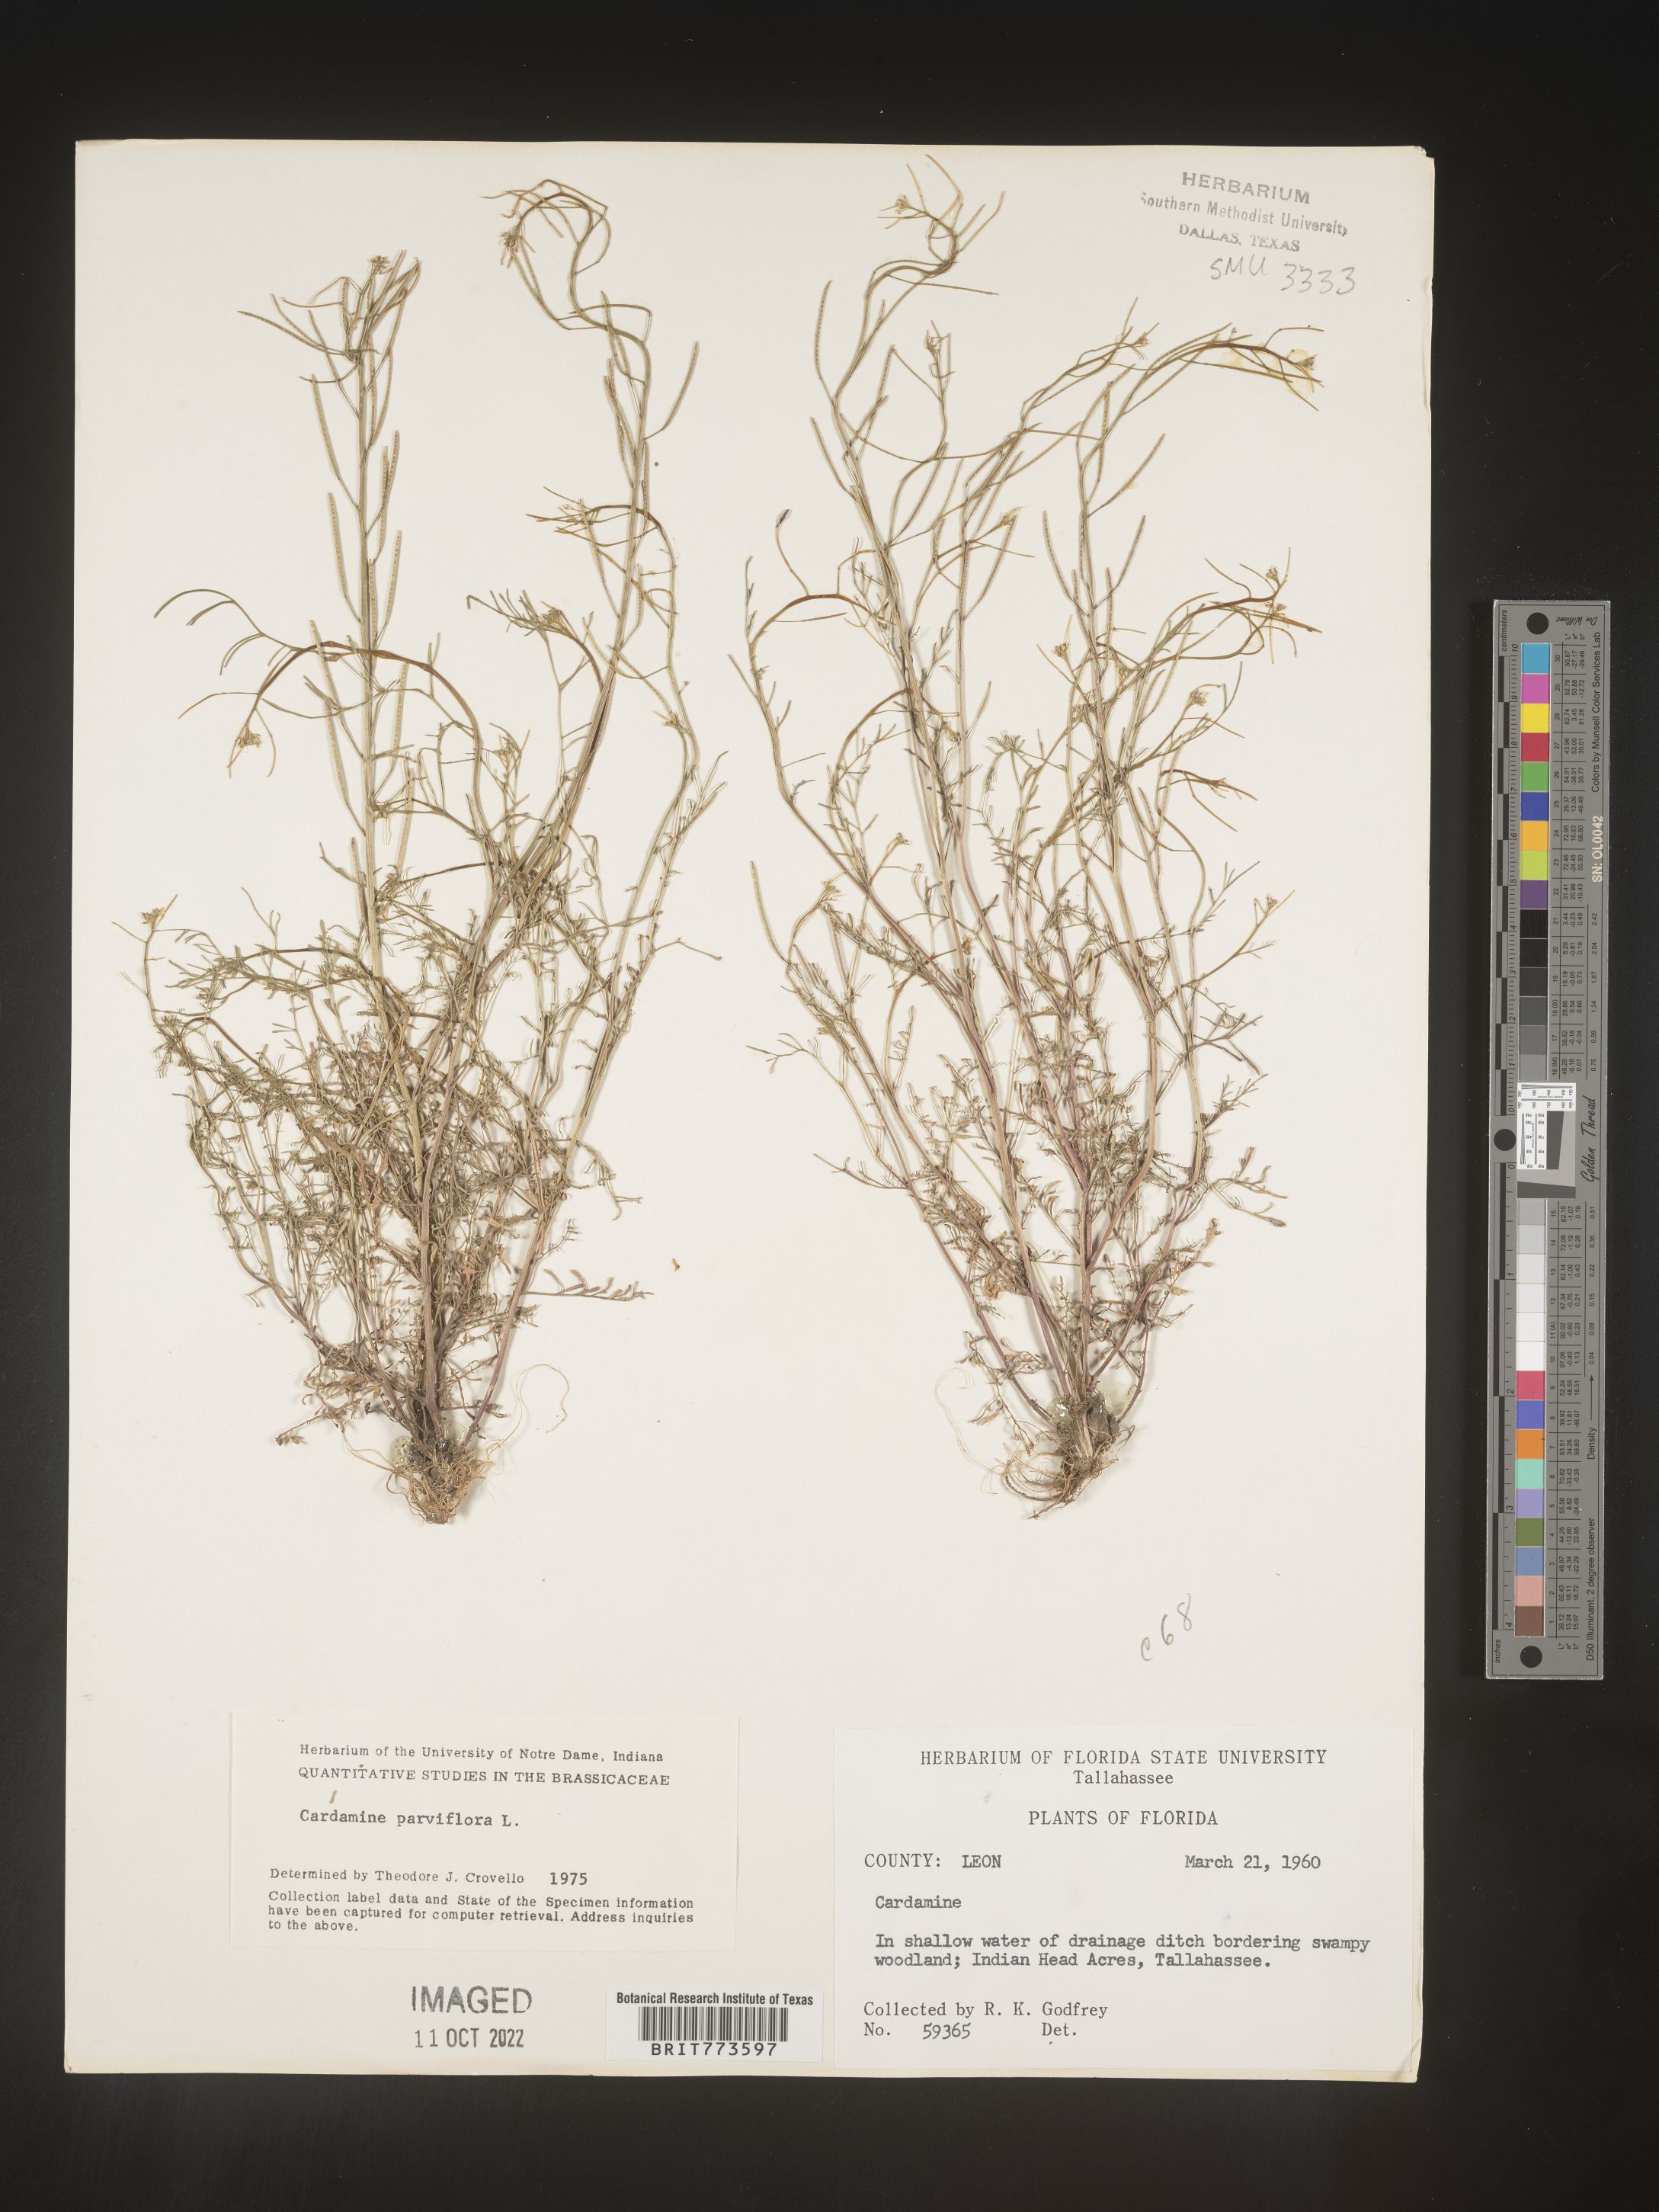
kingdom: Plantae
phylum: Tracheophyta
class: Magnoliopsida
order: Brassicales
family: Brassicaceae
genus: Cardamine
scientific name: Cardamine parviflora
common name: Sand bittercress
